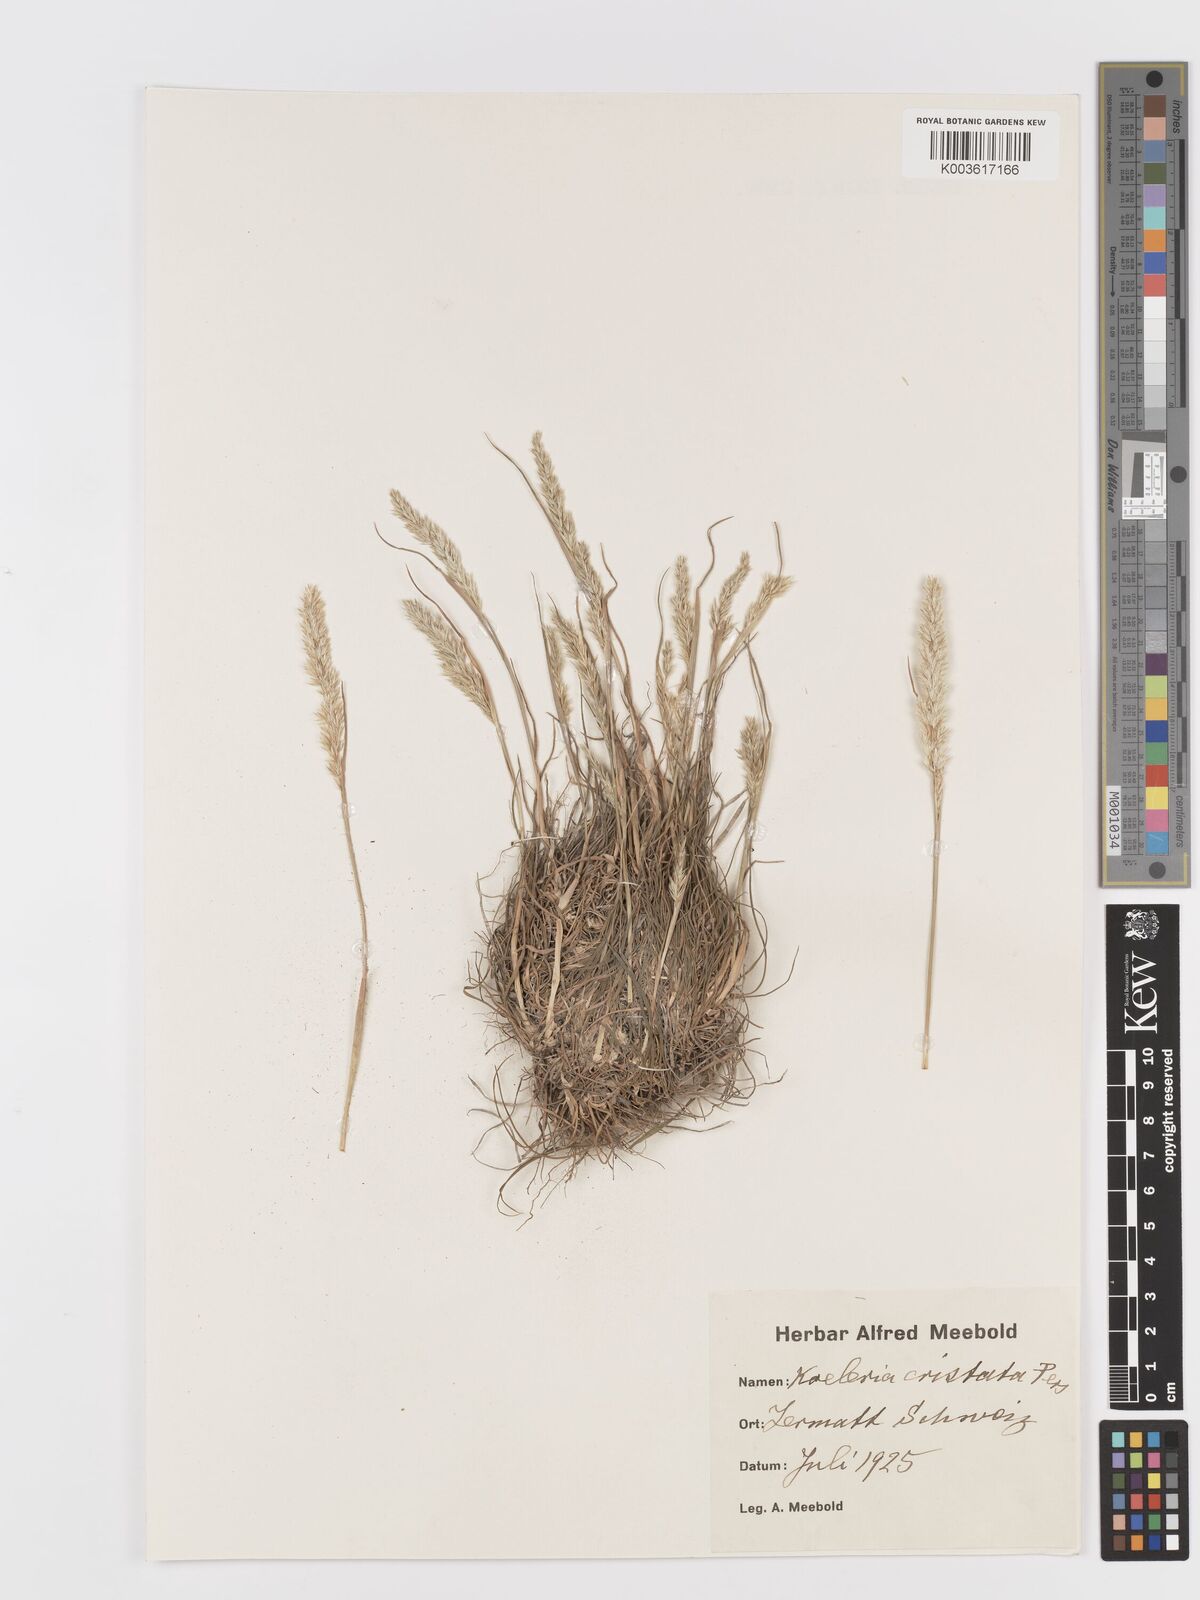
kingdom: Plantae
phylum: Tracheophyta
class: Liliopsida
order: Poales
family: Poaceae
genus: Koeleria
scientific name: Koeleria macrantha
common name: Crested hair-grass
